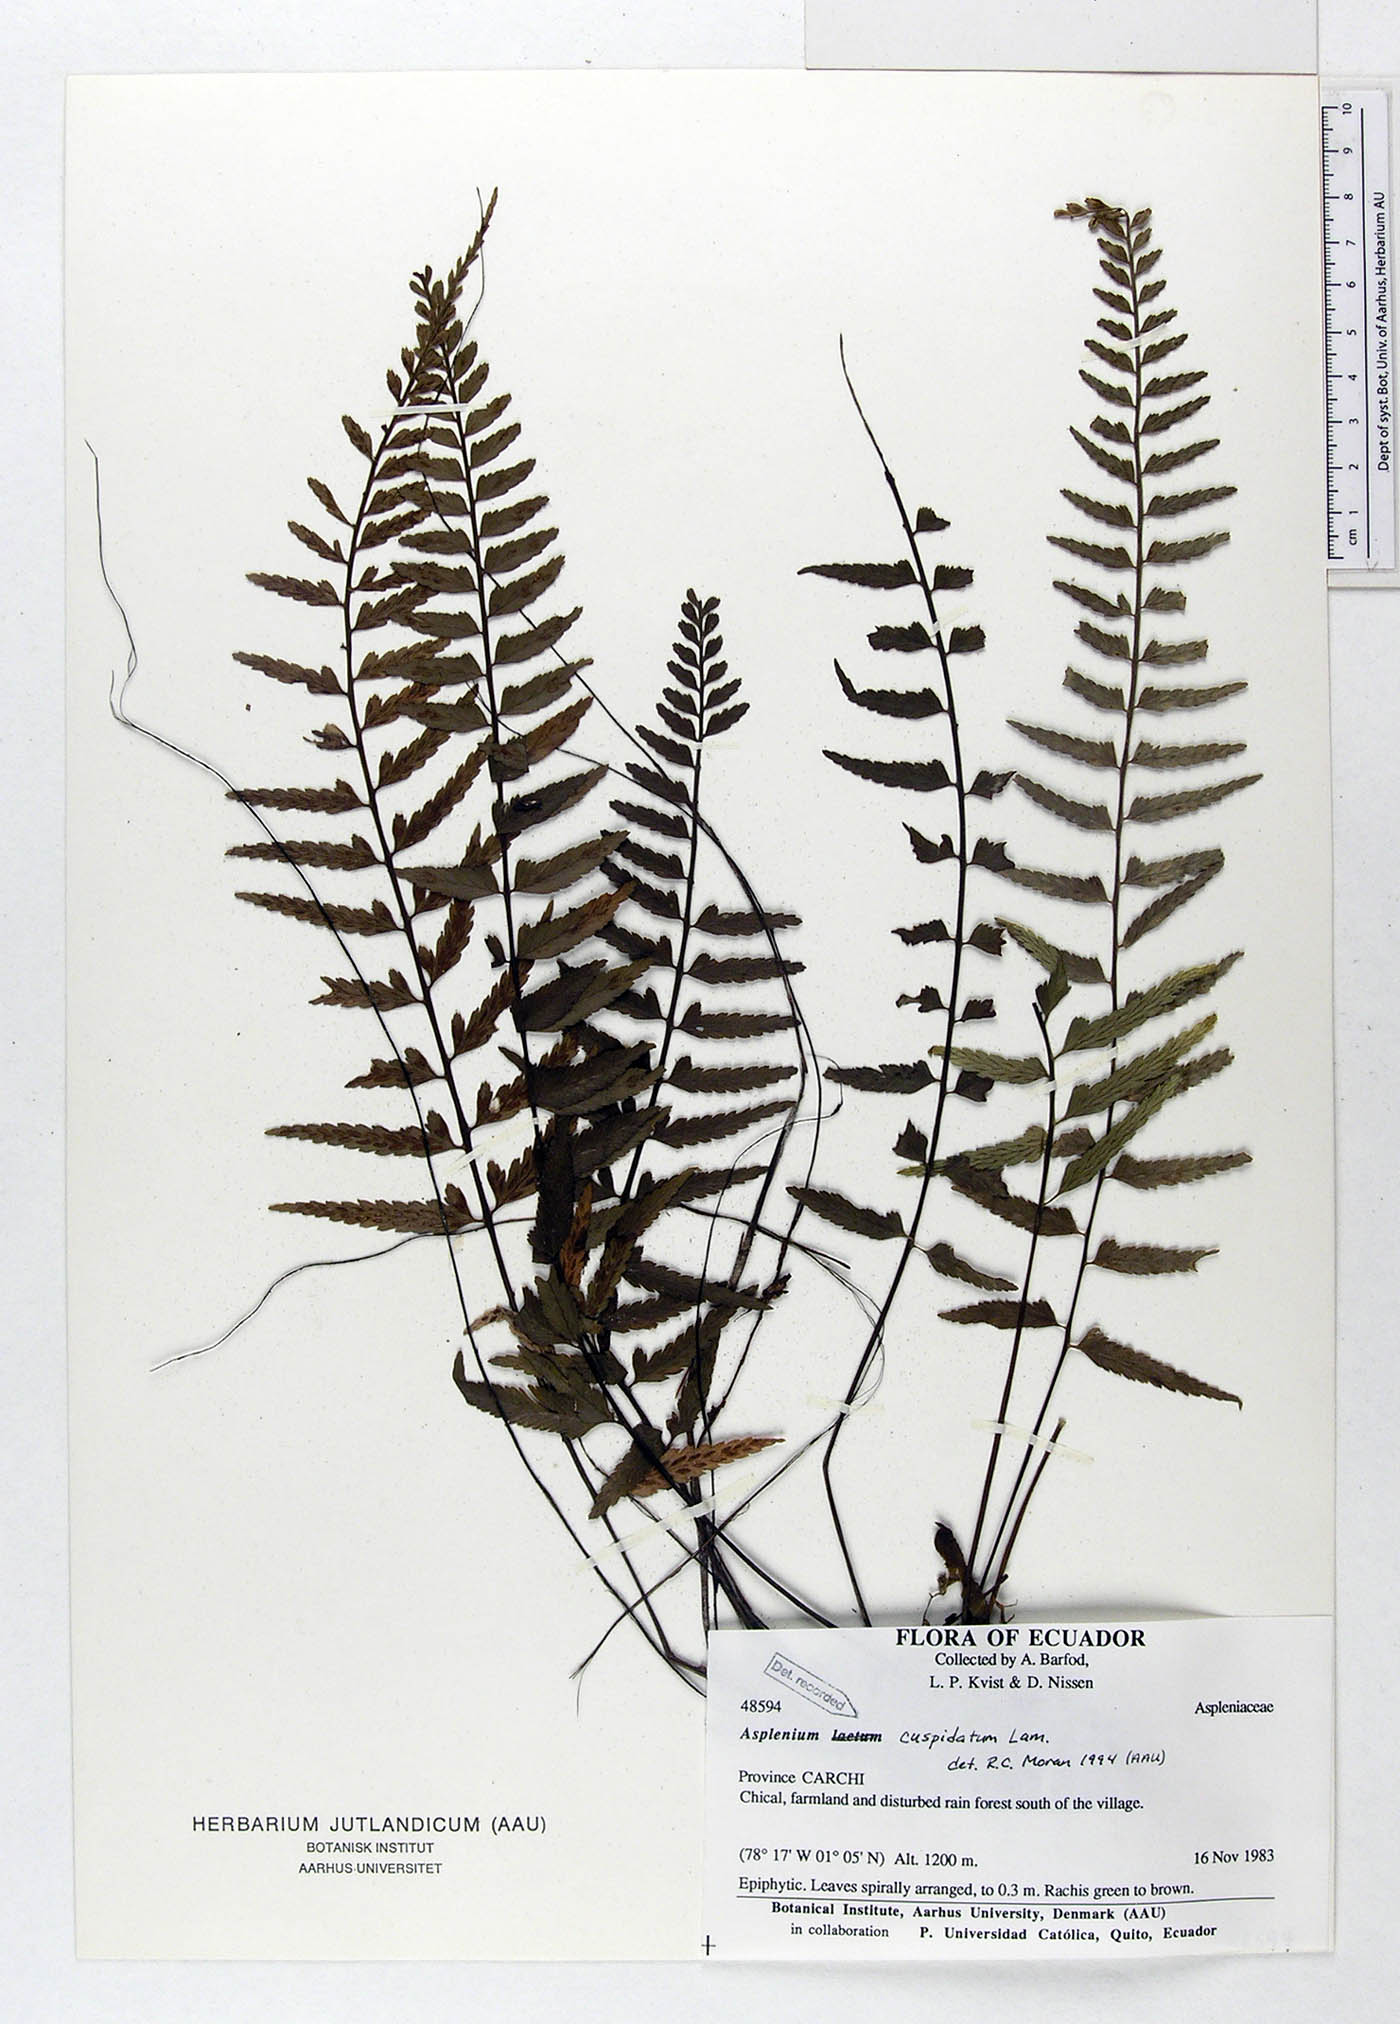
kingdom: Plantae
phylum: Tracheophyta
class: Polypodiopsida
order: Polypodiales
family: Aspleniaceae
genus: Asplenium
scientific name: Asplenium cuspidatum
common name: Eared spleenwort
